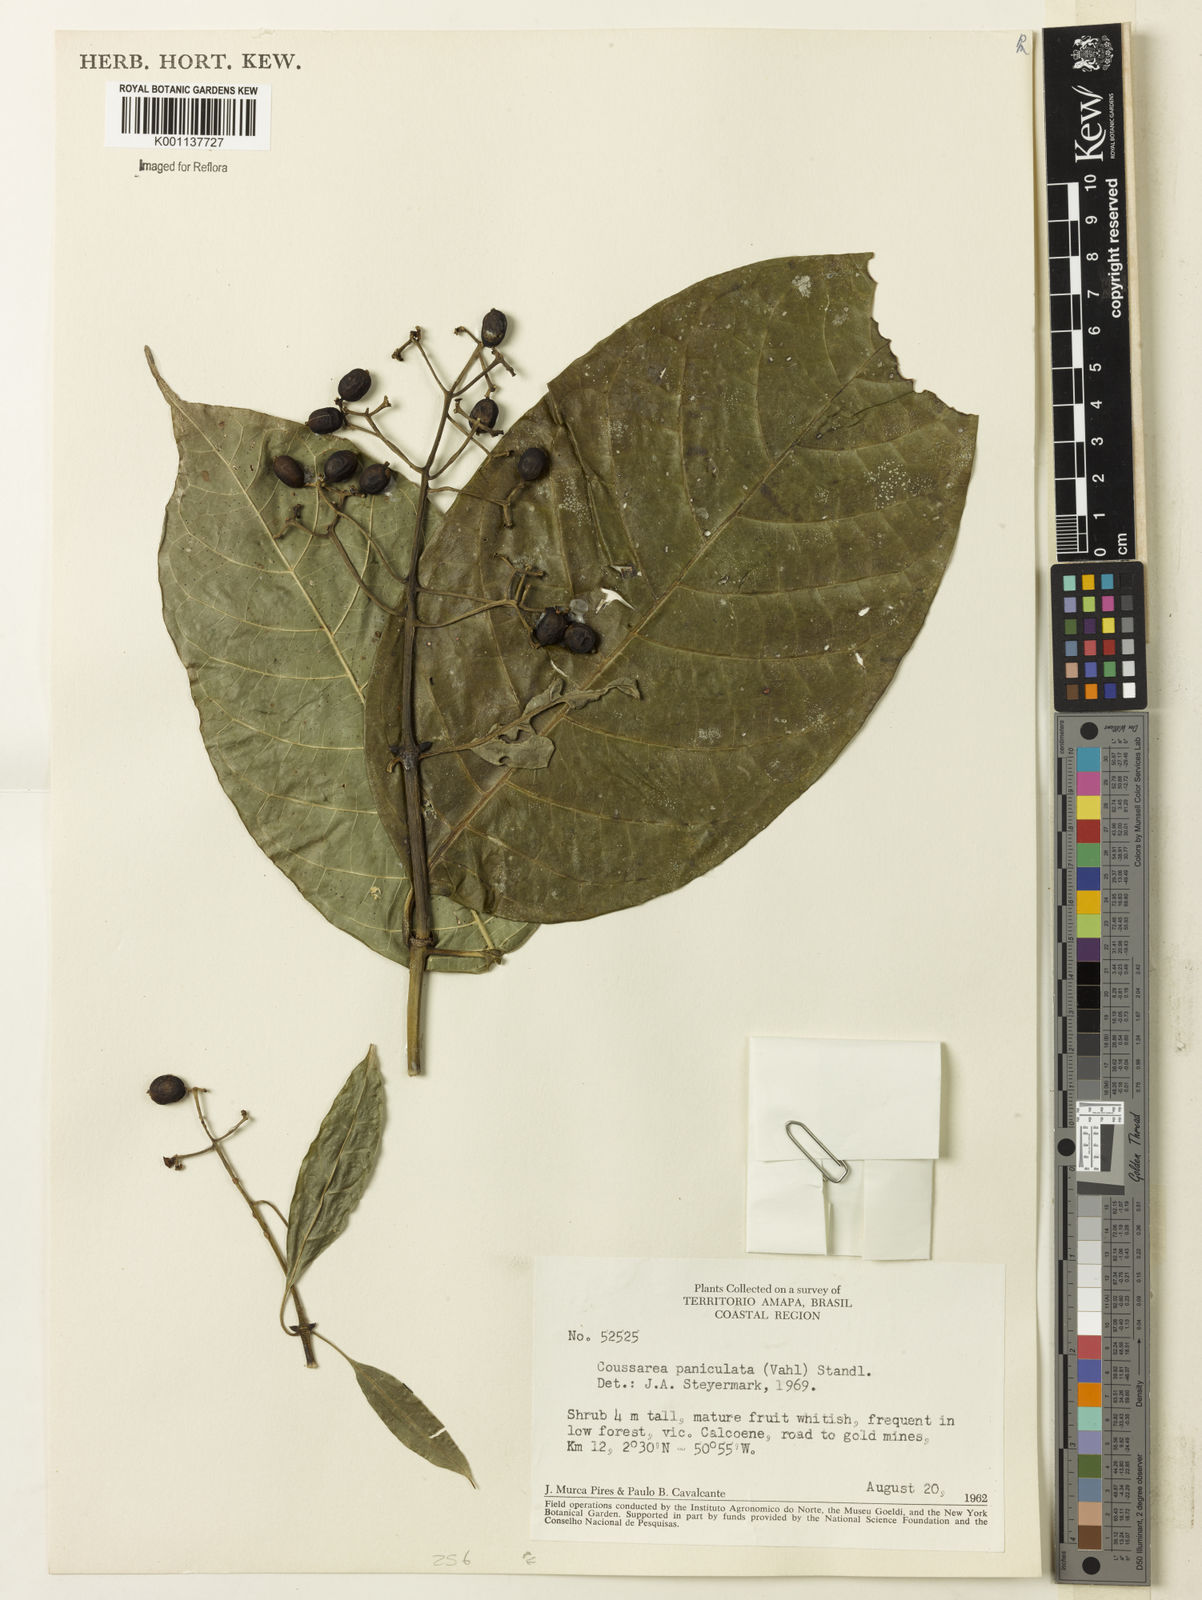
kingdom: Plantae
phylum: Tracheophyta
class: Magnoliopsida
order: Gentianales
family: Rubiaceae
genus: Coussarea
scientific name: Coussarea paniculata
